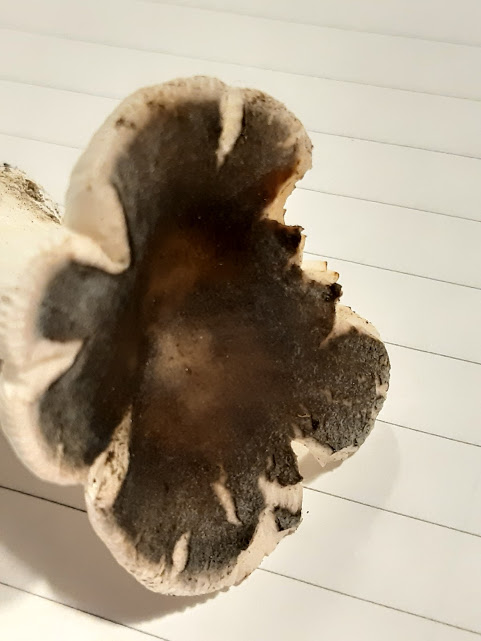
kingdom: Fungi
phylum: Basidiomycota
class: Agaricomycetes
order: Russulales
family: Russulaceae
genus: Russula
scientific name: Russula
